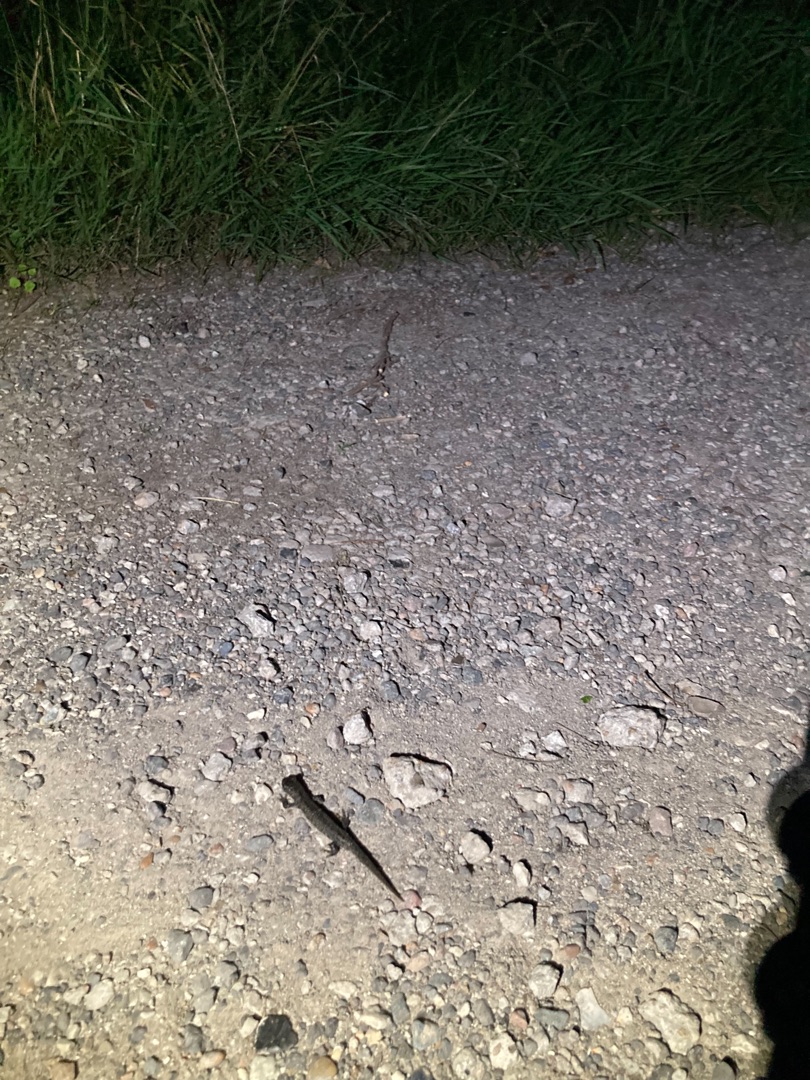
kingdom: Animalia
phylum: Chordata
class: Amphibia
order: Caudata
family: Salamandridae
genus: Triturus
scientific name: Triturus cristatus
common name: Stor vandsalamander
